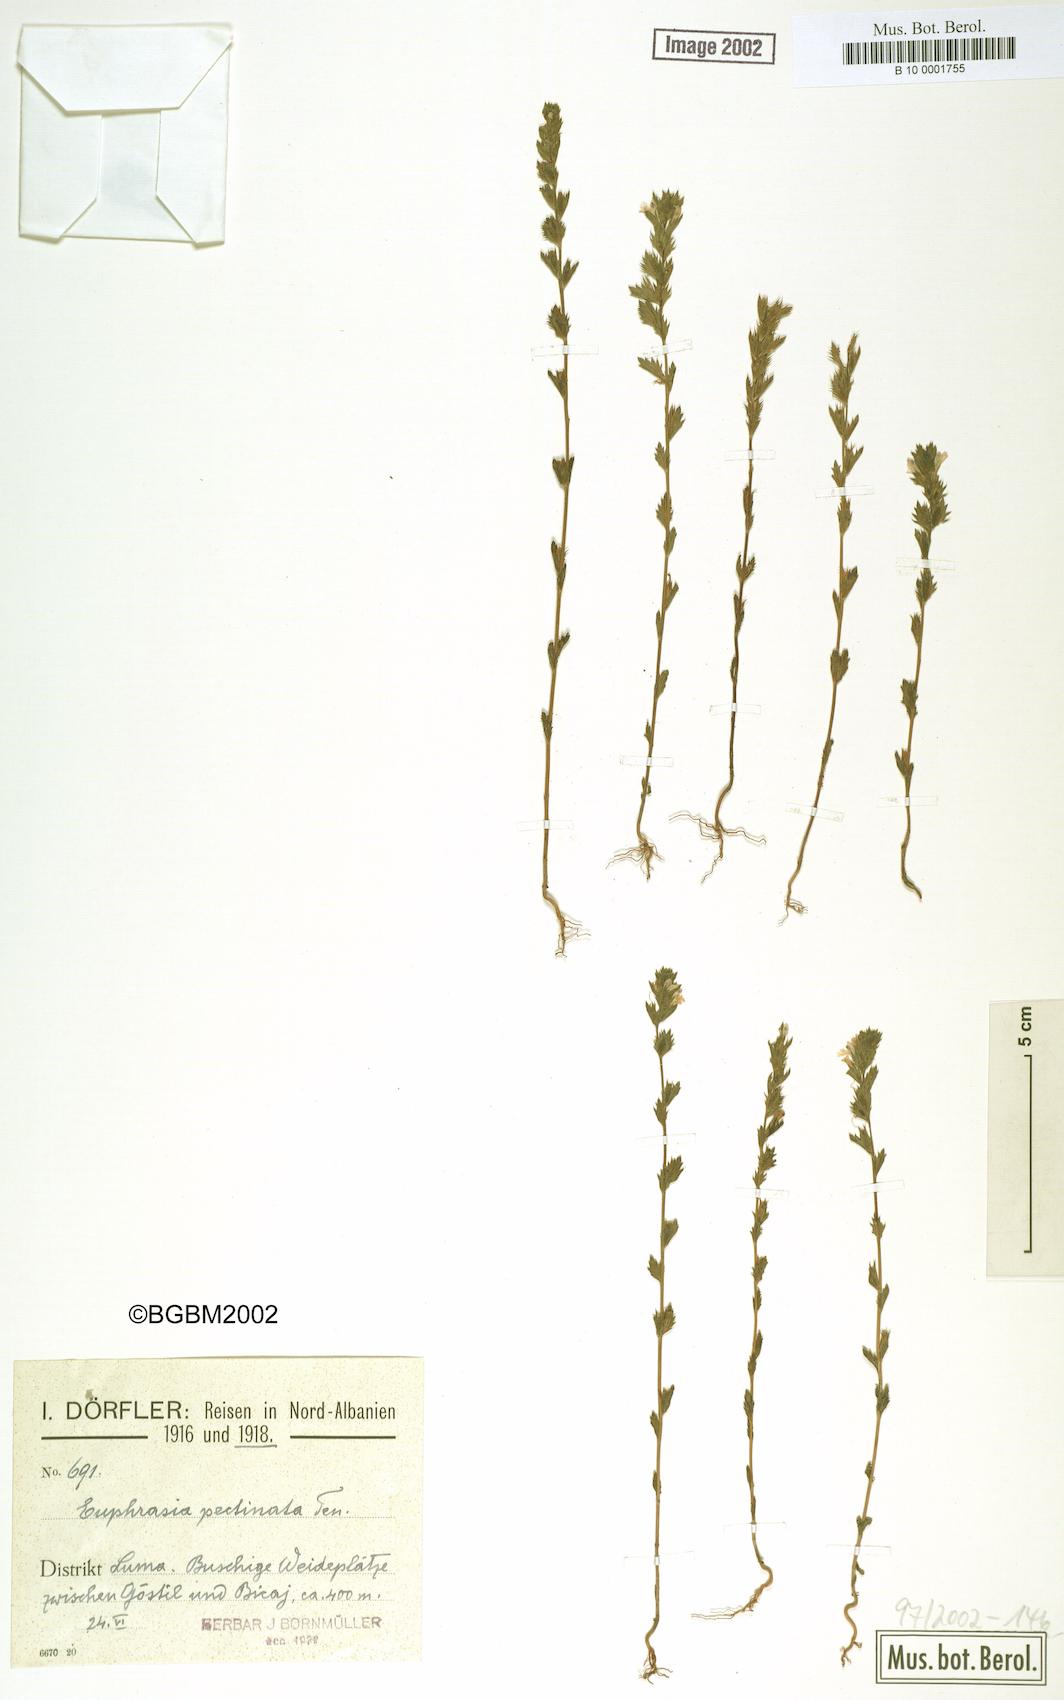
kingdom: Plantae
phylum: Tracheophyta
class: Magnoliopsida
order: Lamiales
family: Orobanchaceae
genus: Euphrasia
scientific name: Euphrasia pectinata
